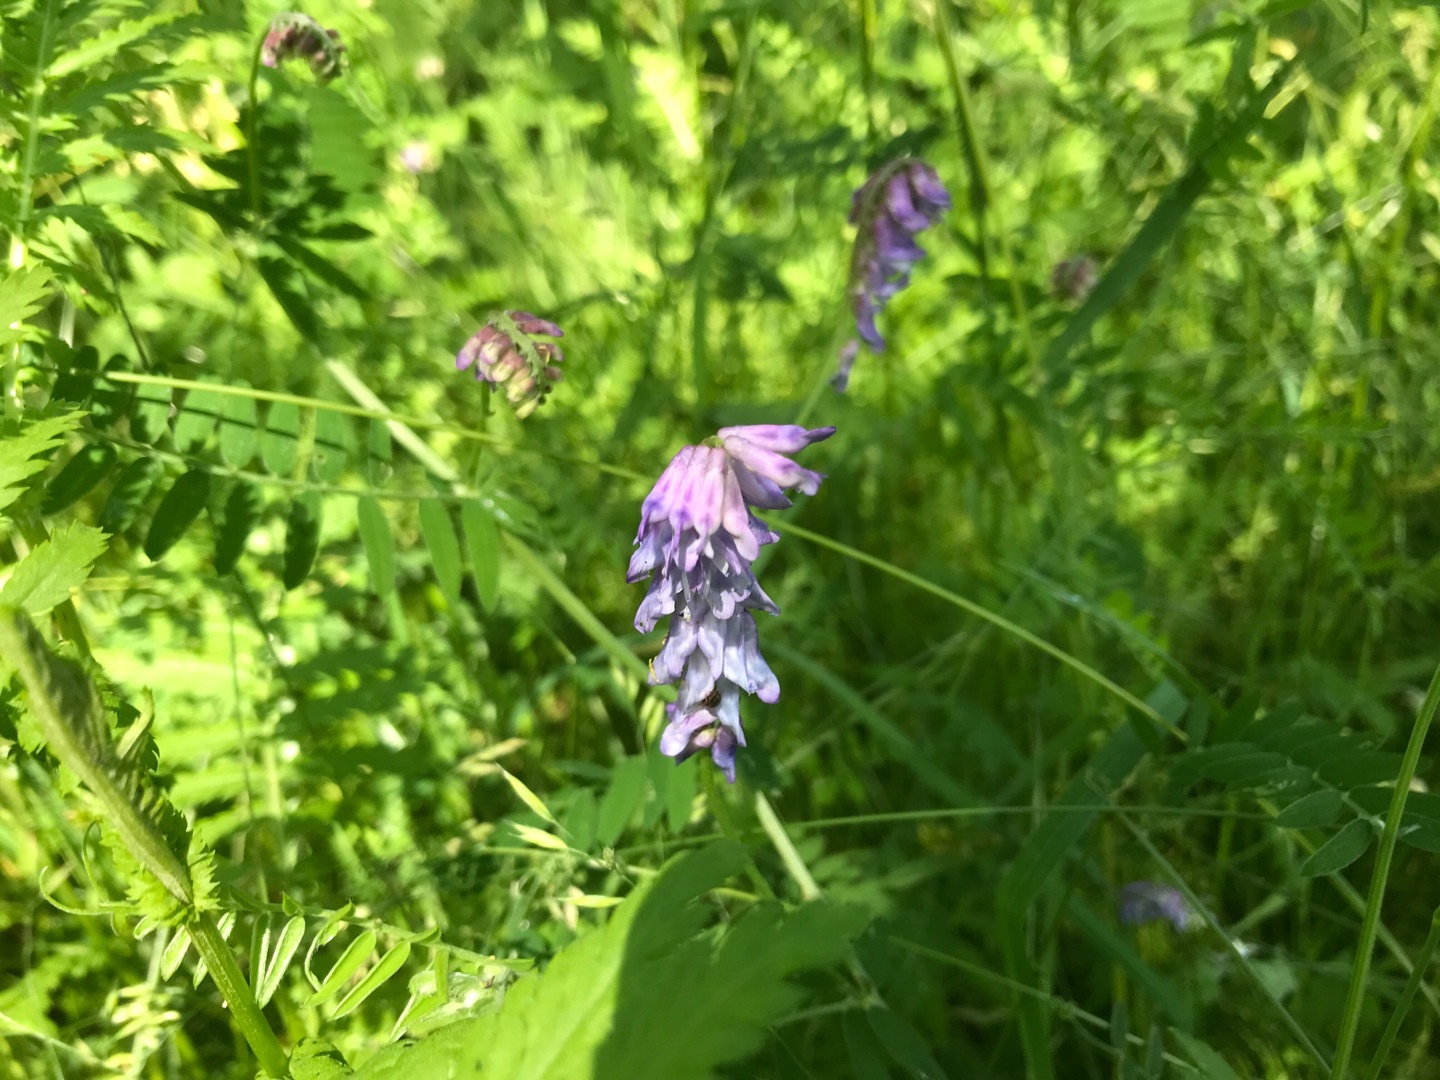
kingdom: Plantae
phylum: Tracheophyta
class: Magnoliopsida
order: Fabales
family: Fabaceae
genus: Vicia
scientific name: Vicia cracca
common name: Muse-vikke
